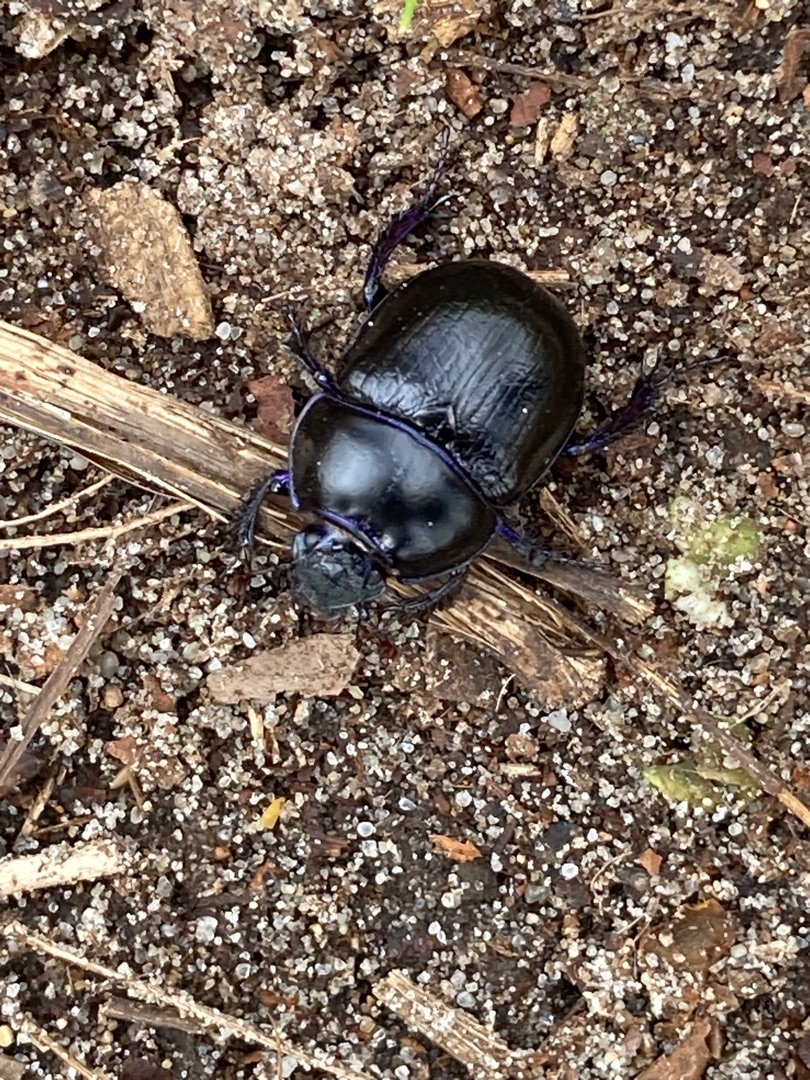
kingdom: Animalia
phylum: Arthropoda
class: Insecta
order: Coleoptera
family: Geotrupidae
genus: Anoplotrupes
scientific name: Anoplotrupes stercorosus
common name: Skovskarnbasse
